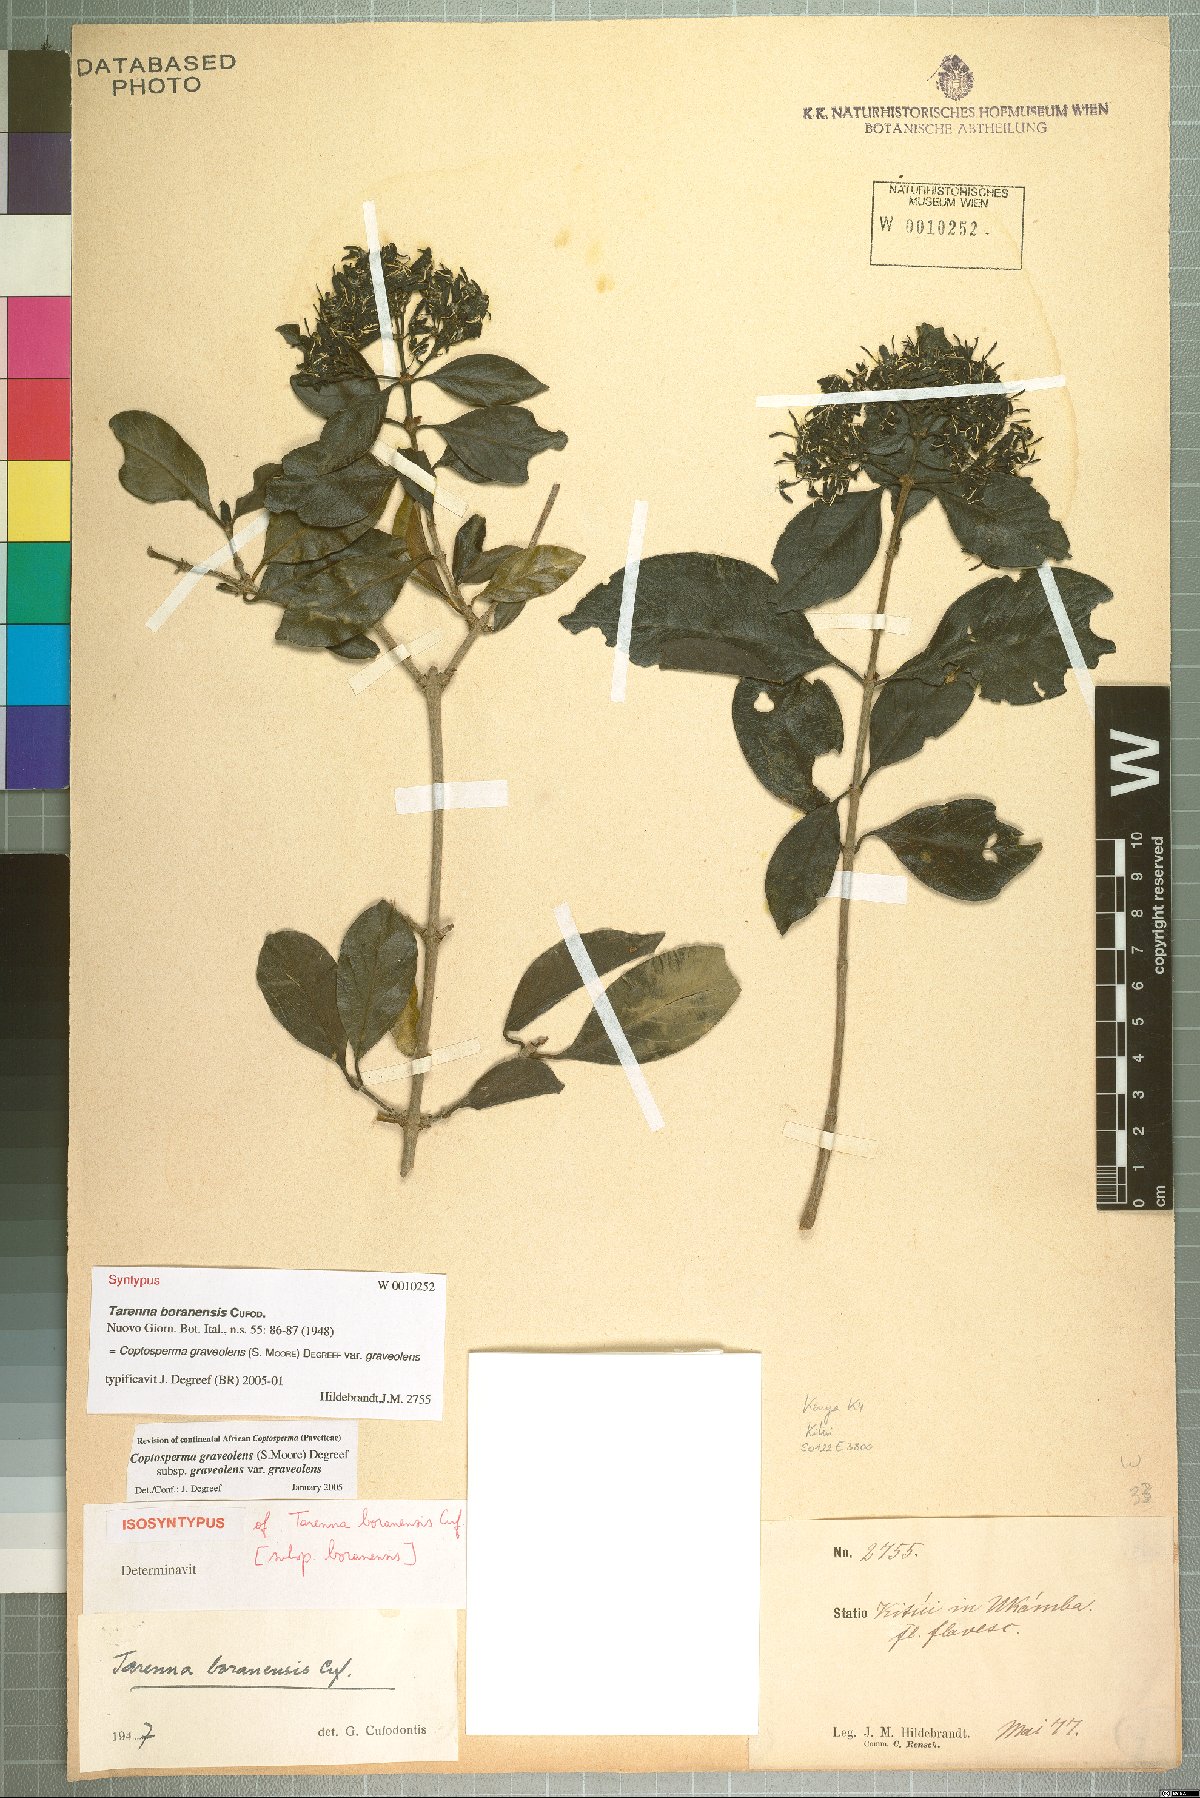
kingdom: Plantae
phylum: Tracheophyta
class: Magnoliopsida
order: Gentianales
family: Rubiaceae
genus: Coptosperma
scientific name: Coptosperma graveolens
